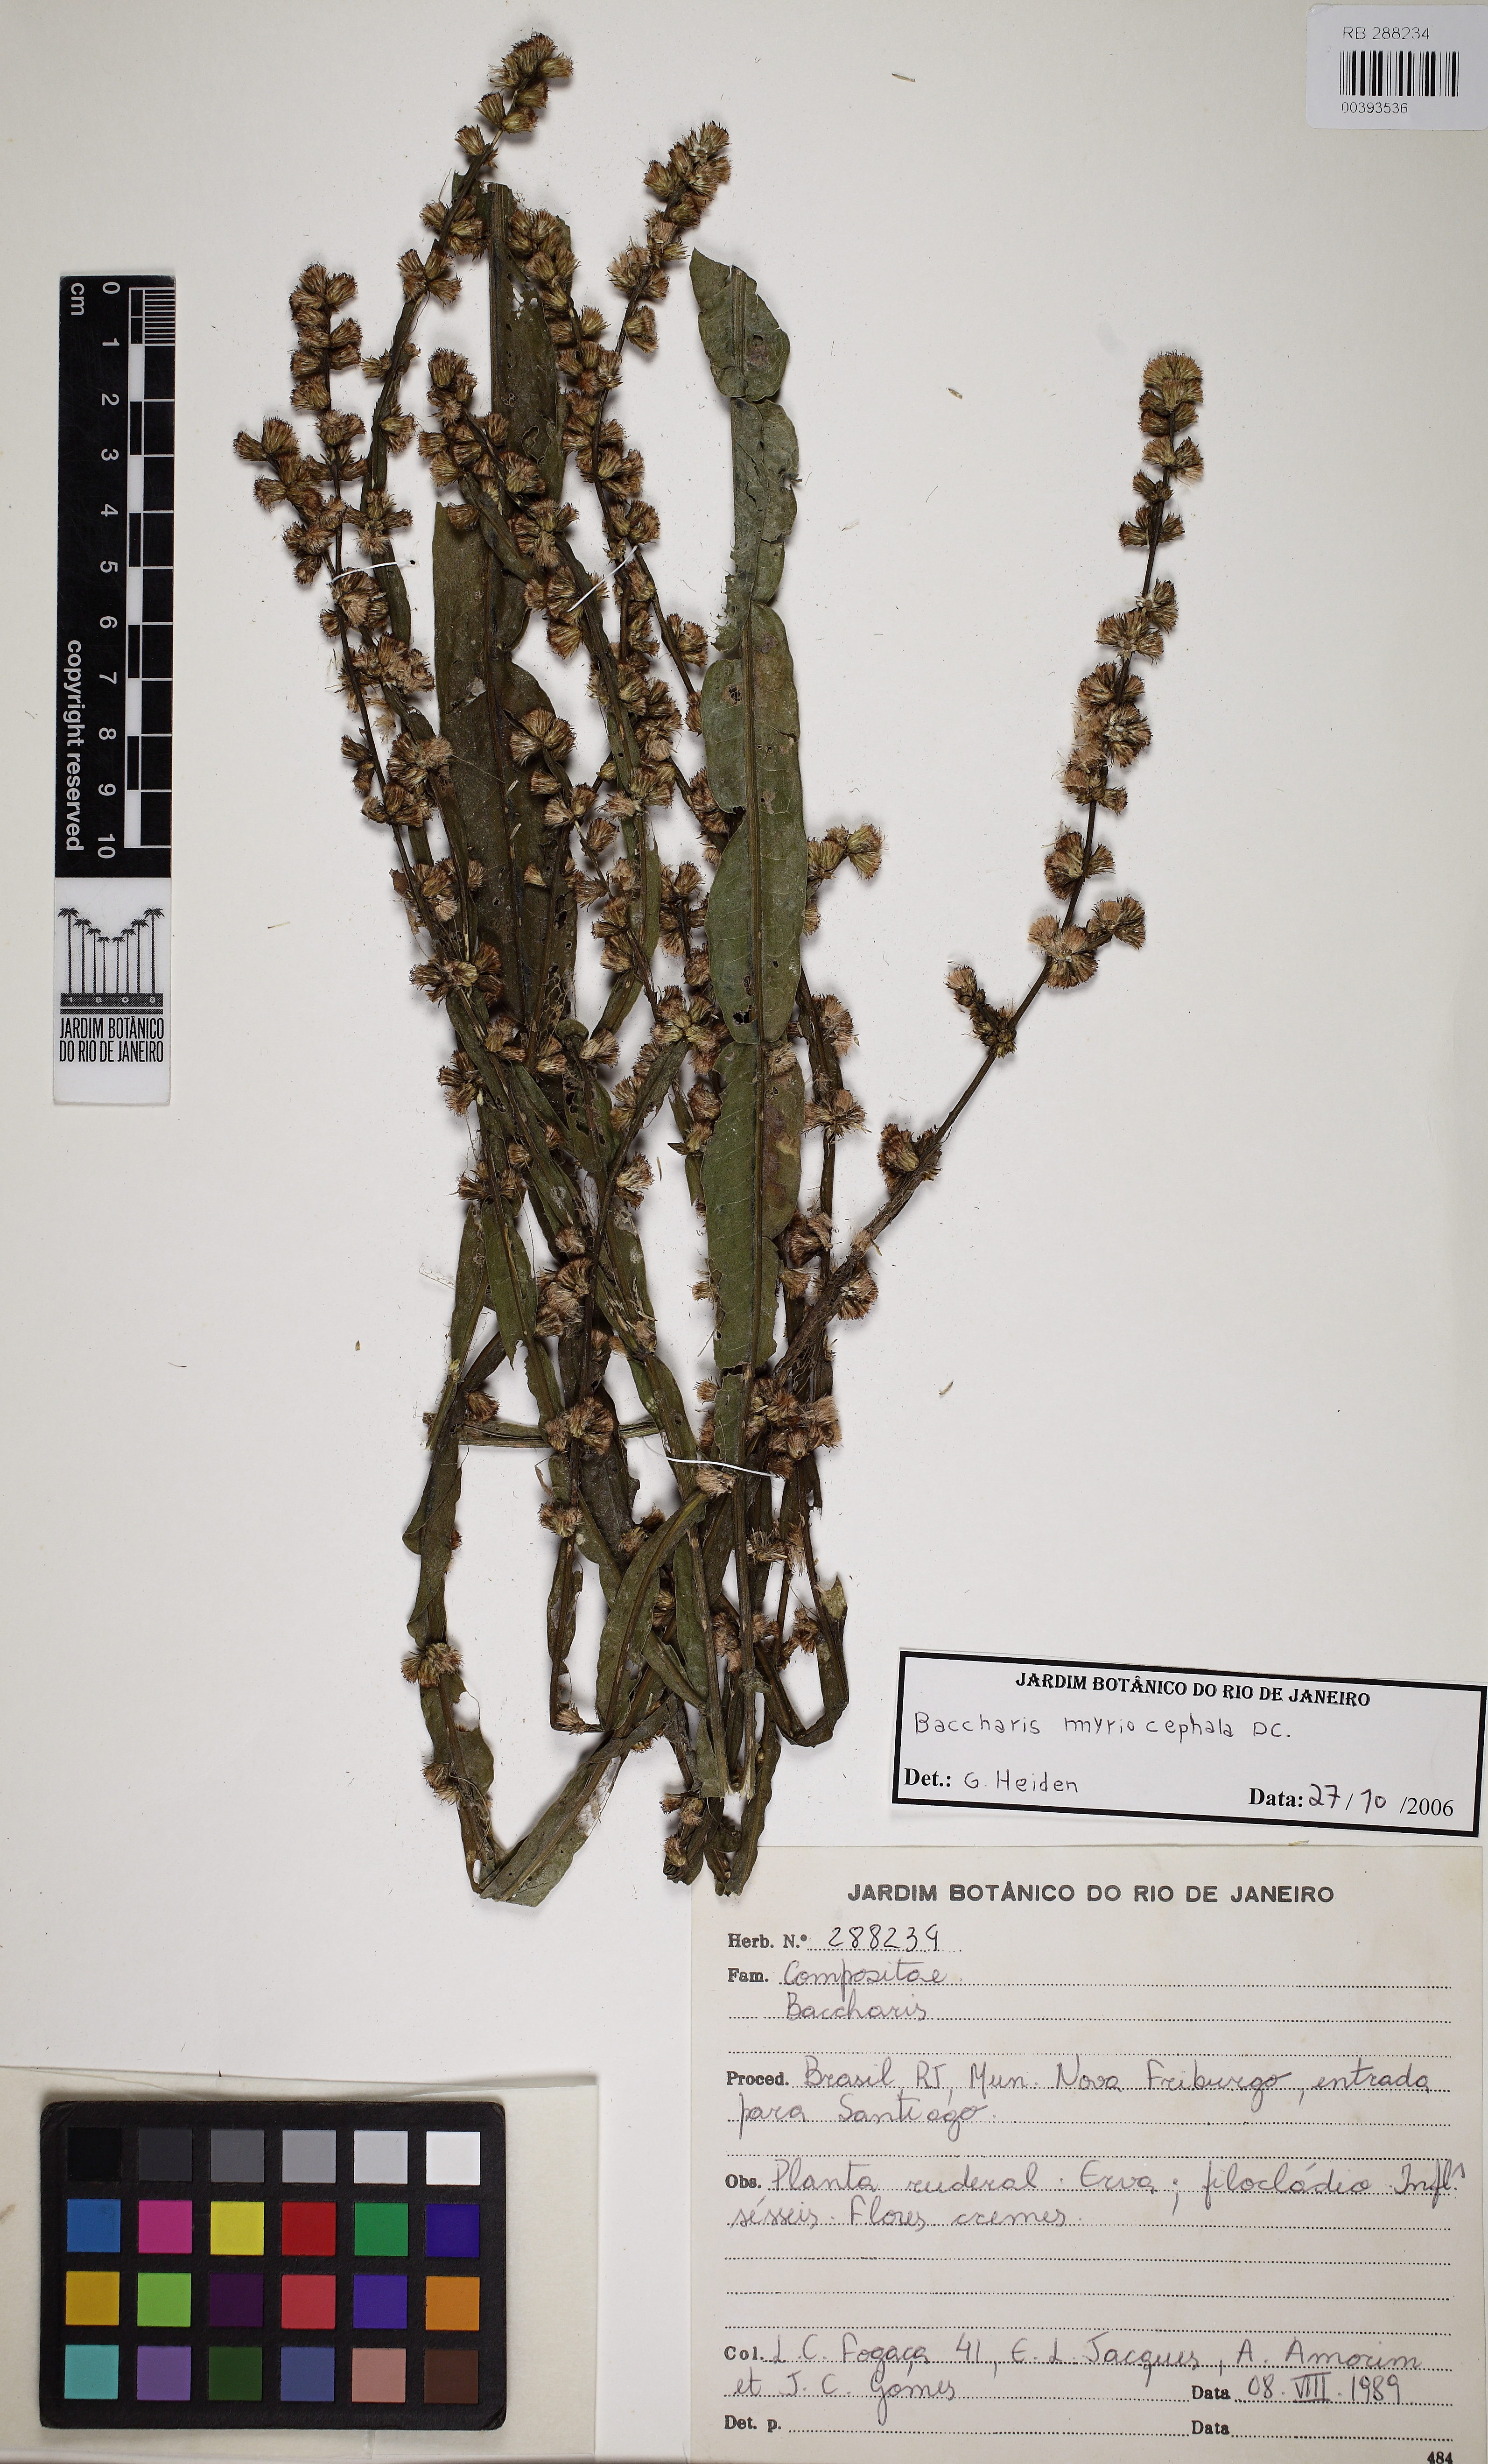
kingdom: Plantae
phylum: Tracheophyta
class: Magnoliopsida
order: Asterales
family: Asteraceae
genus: Baccharis
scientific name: Baccharis myriocephala
